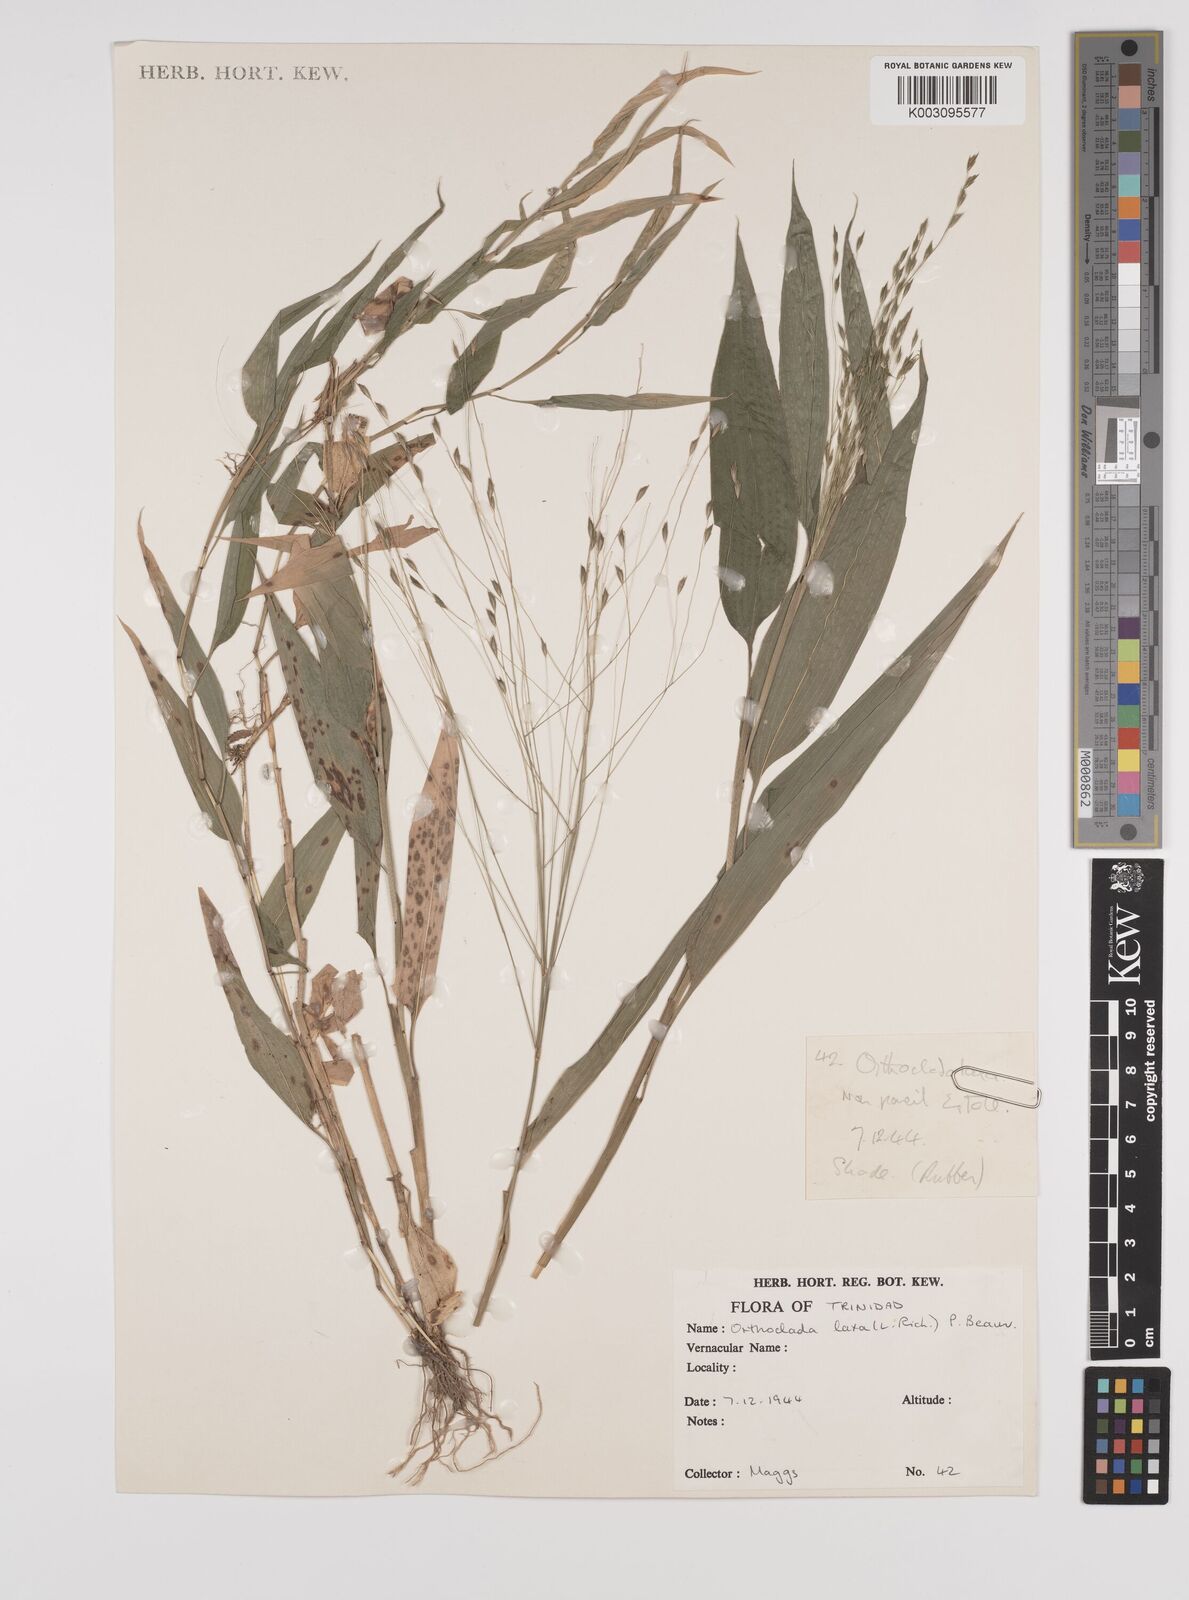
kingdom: Plantae
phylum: Tracheophyta
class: Liliopsida
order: Poales
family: Poaceae
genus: Orthoclada
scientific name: Orthoclada laxa
